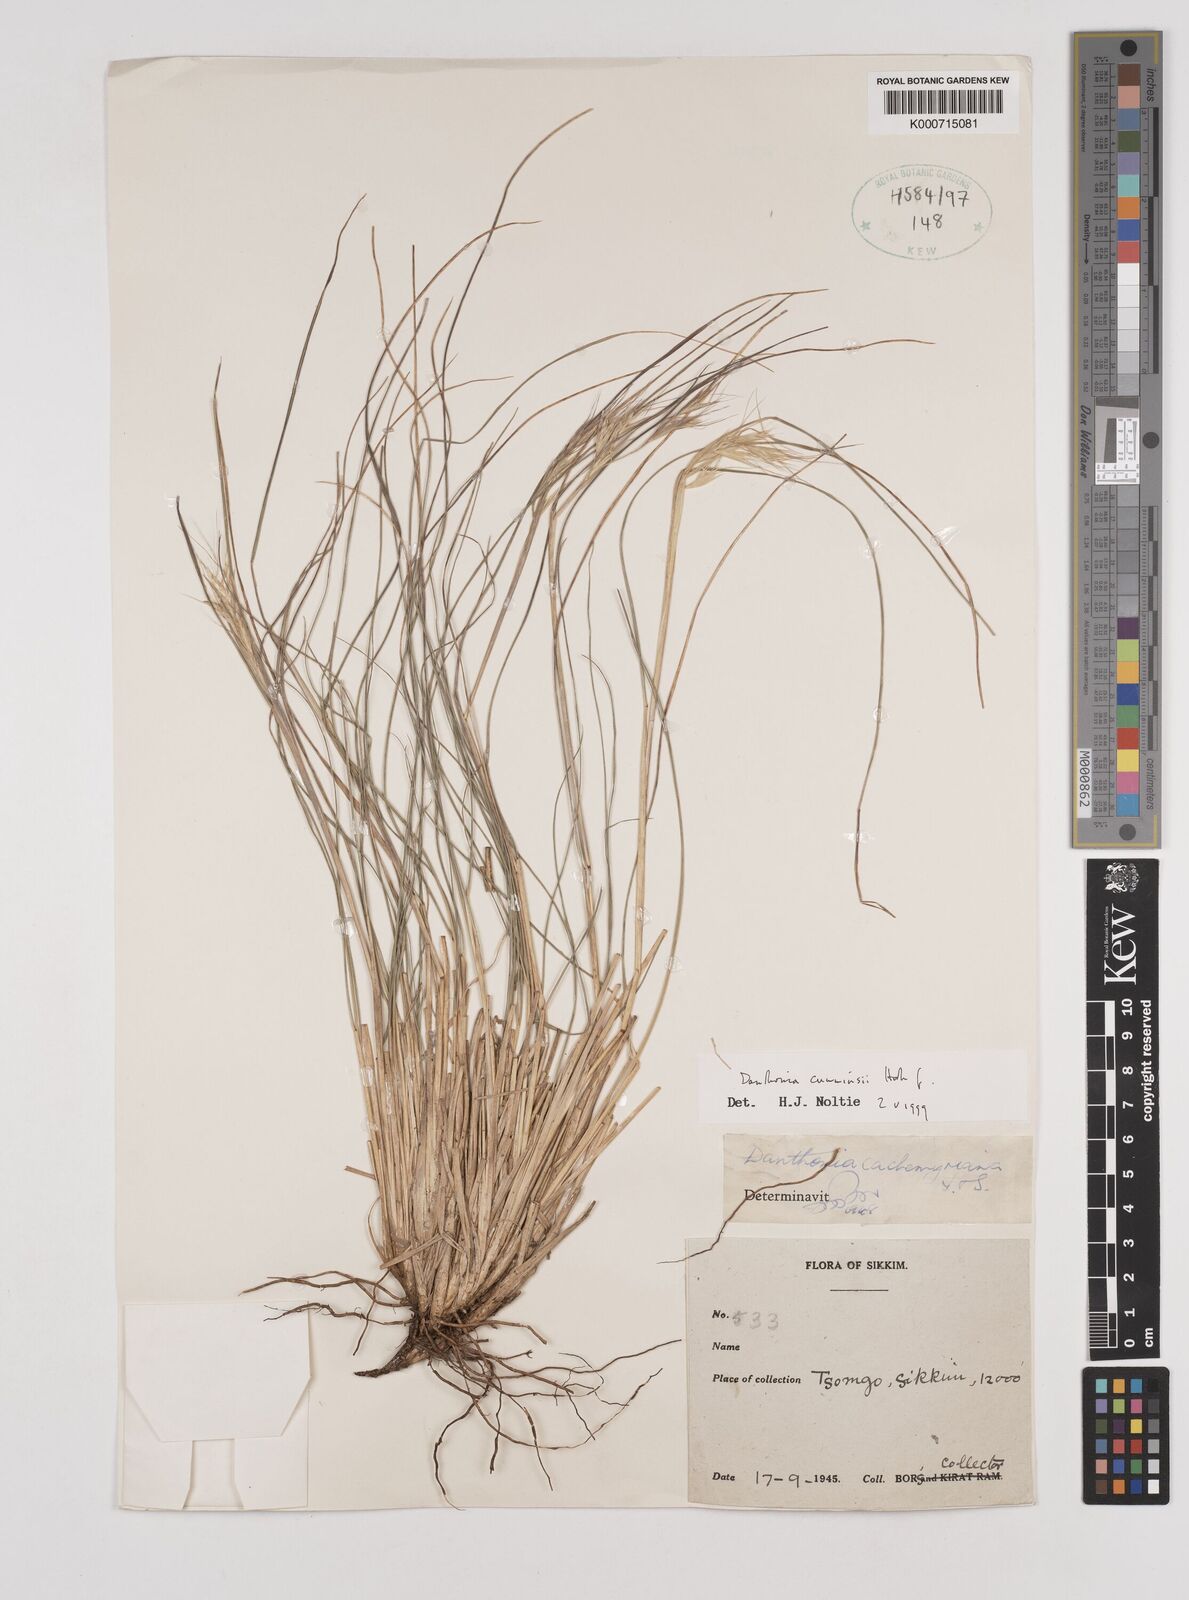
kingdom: Plantae
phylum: Tracheophyta
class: Liliopsida
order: Poales
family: Poaceae
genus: Rytidosperma
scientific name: Rytidosperma
